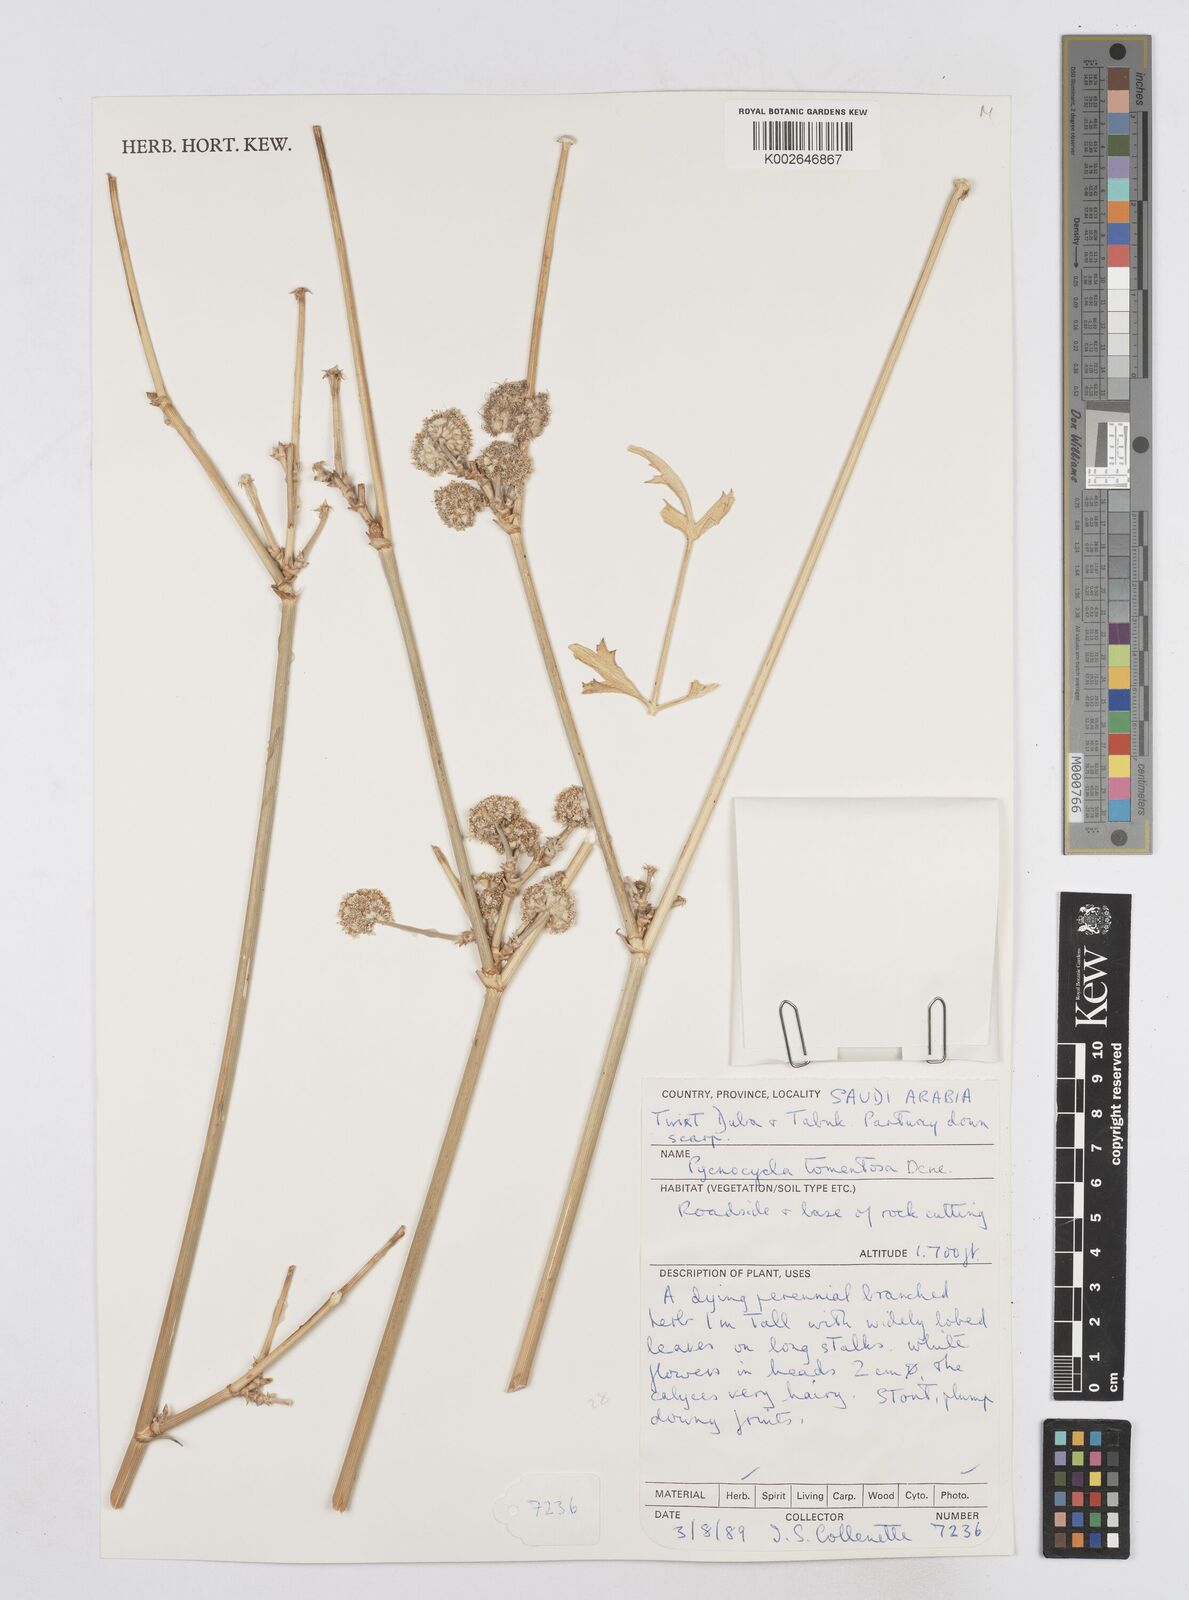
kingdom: Plantae
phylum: Tracheophyta
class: Magnoliopsida
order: Apiales
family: Apiaceae
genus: Pycnocycla
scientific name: Pycnocycla tomentosa
